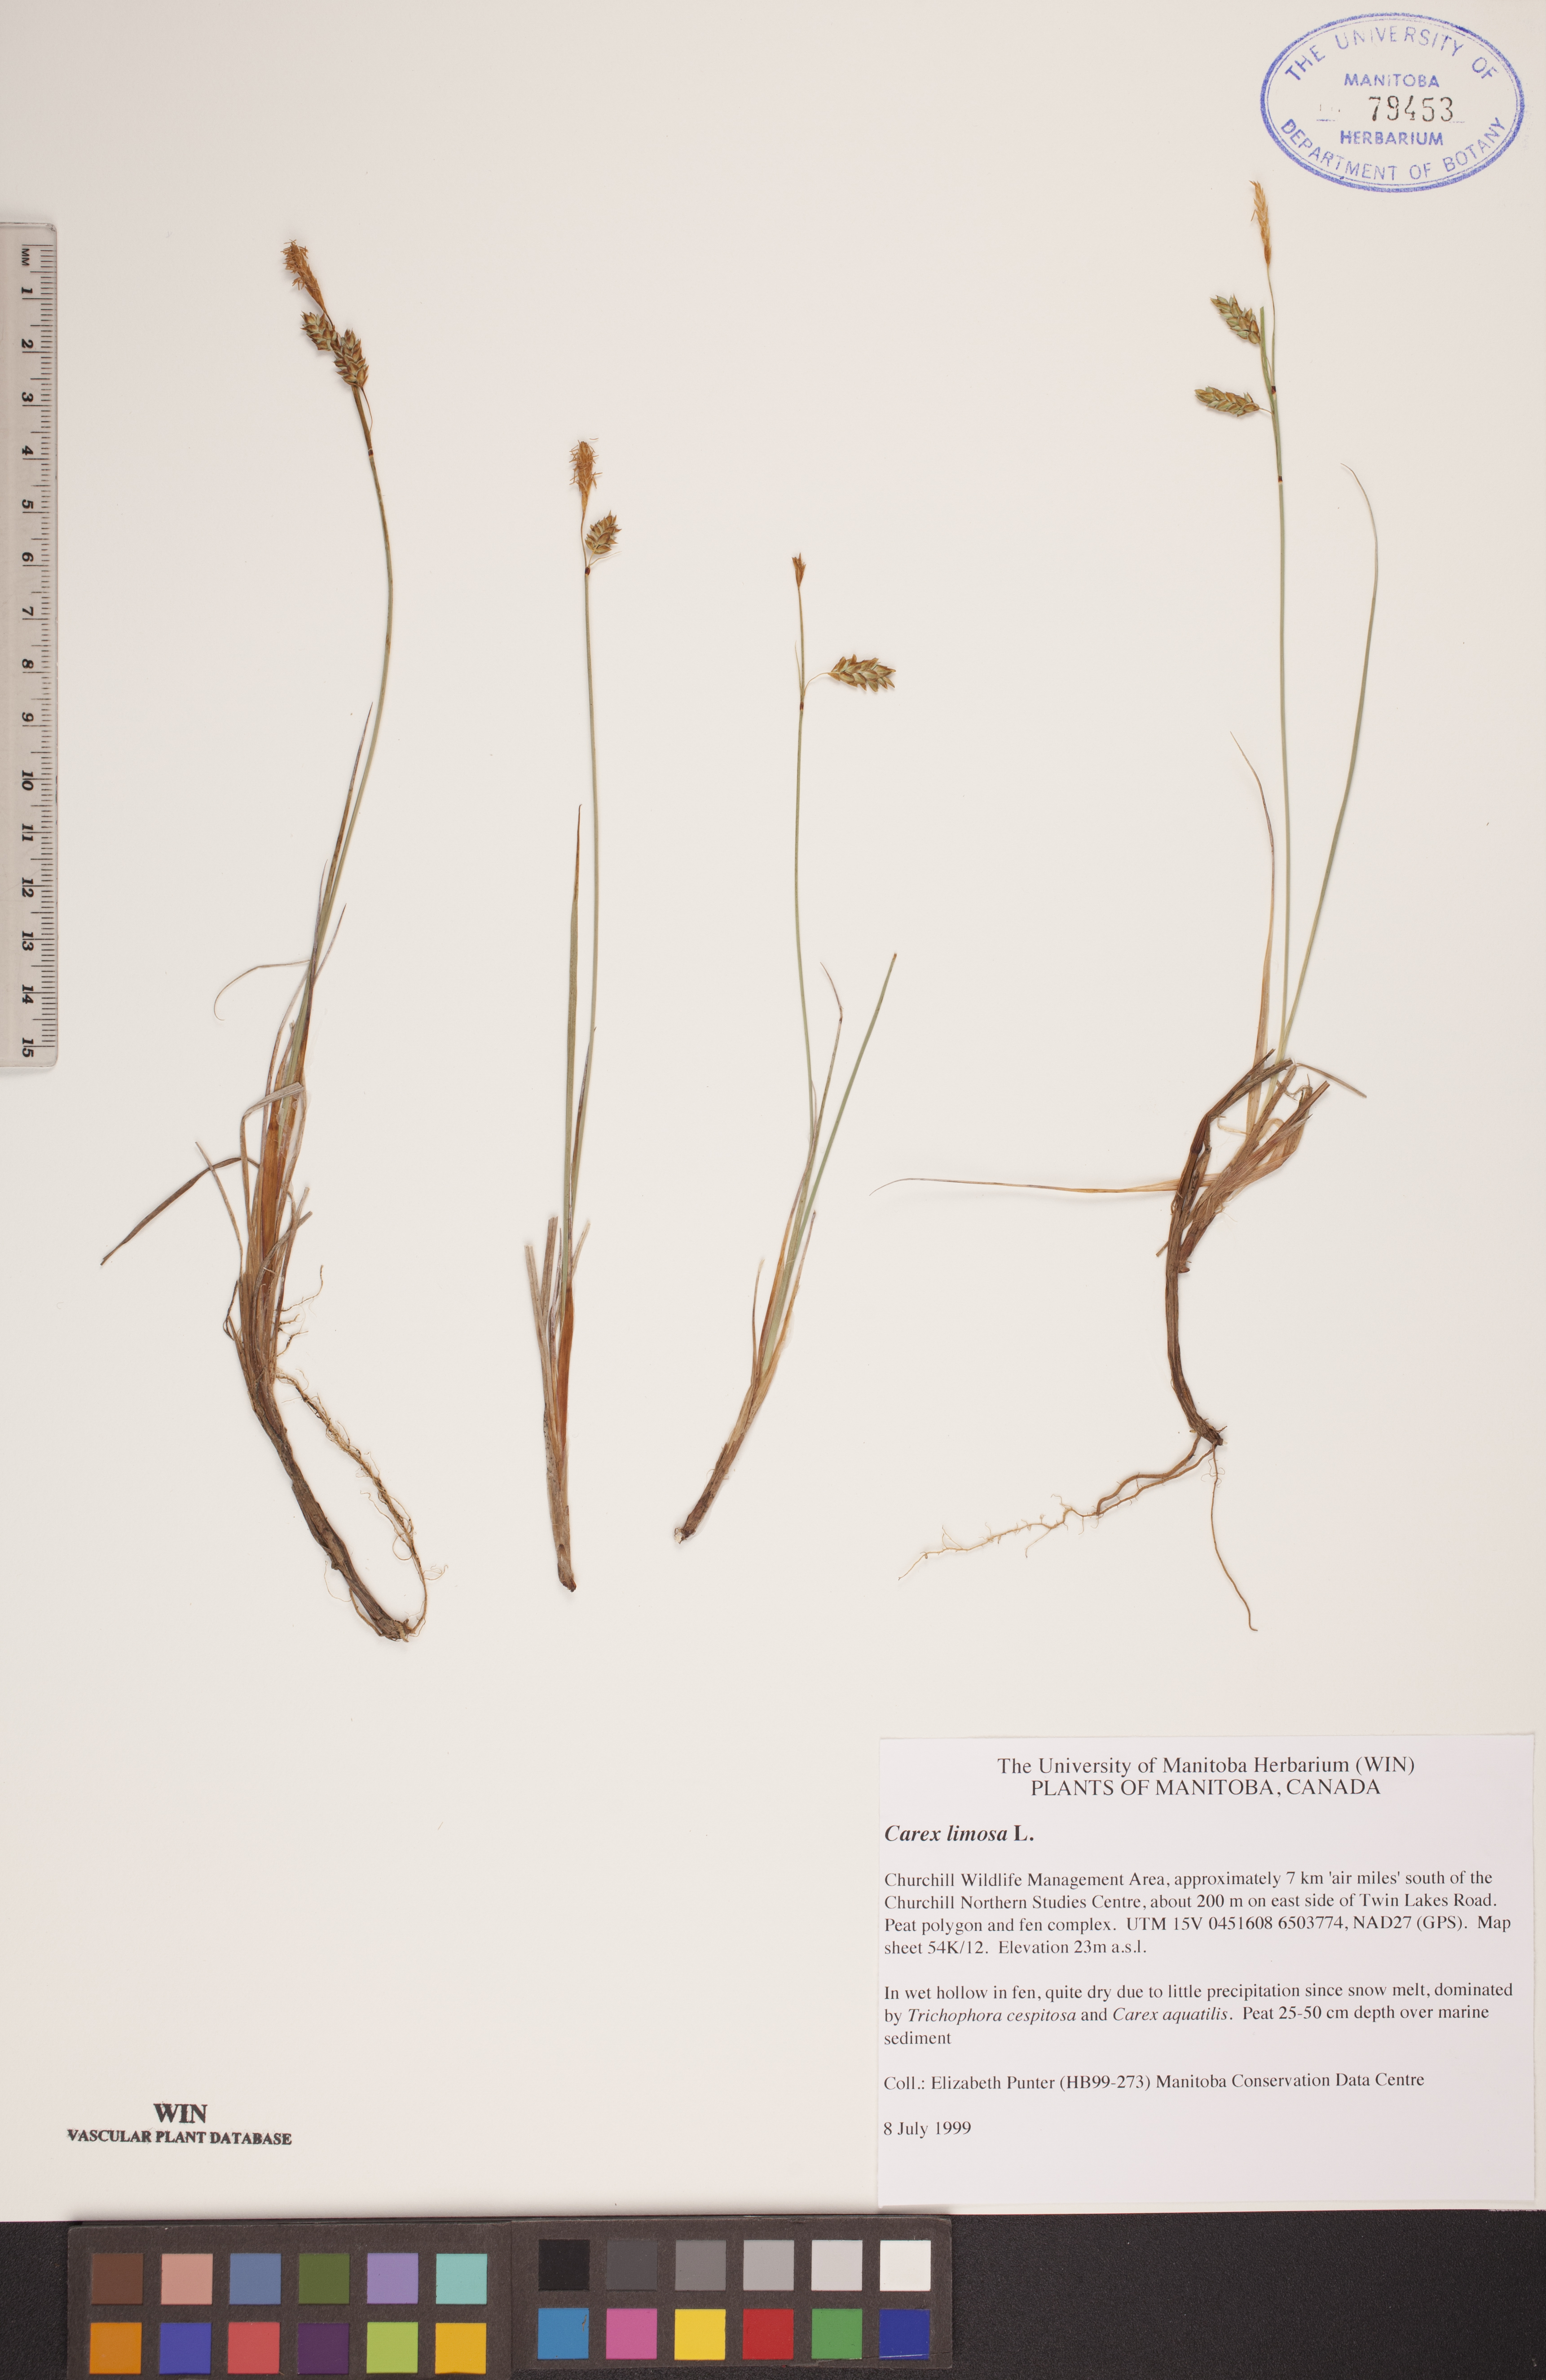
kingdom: Plantae
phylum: Tracheophyta
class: Liliopsida
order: Poales
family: Cyperaceae
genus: Carex
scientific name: Carex limosa
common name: Bog sedge
